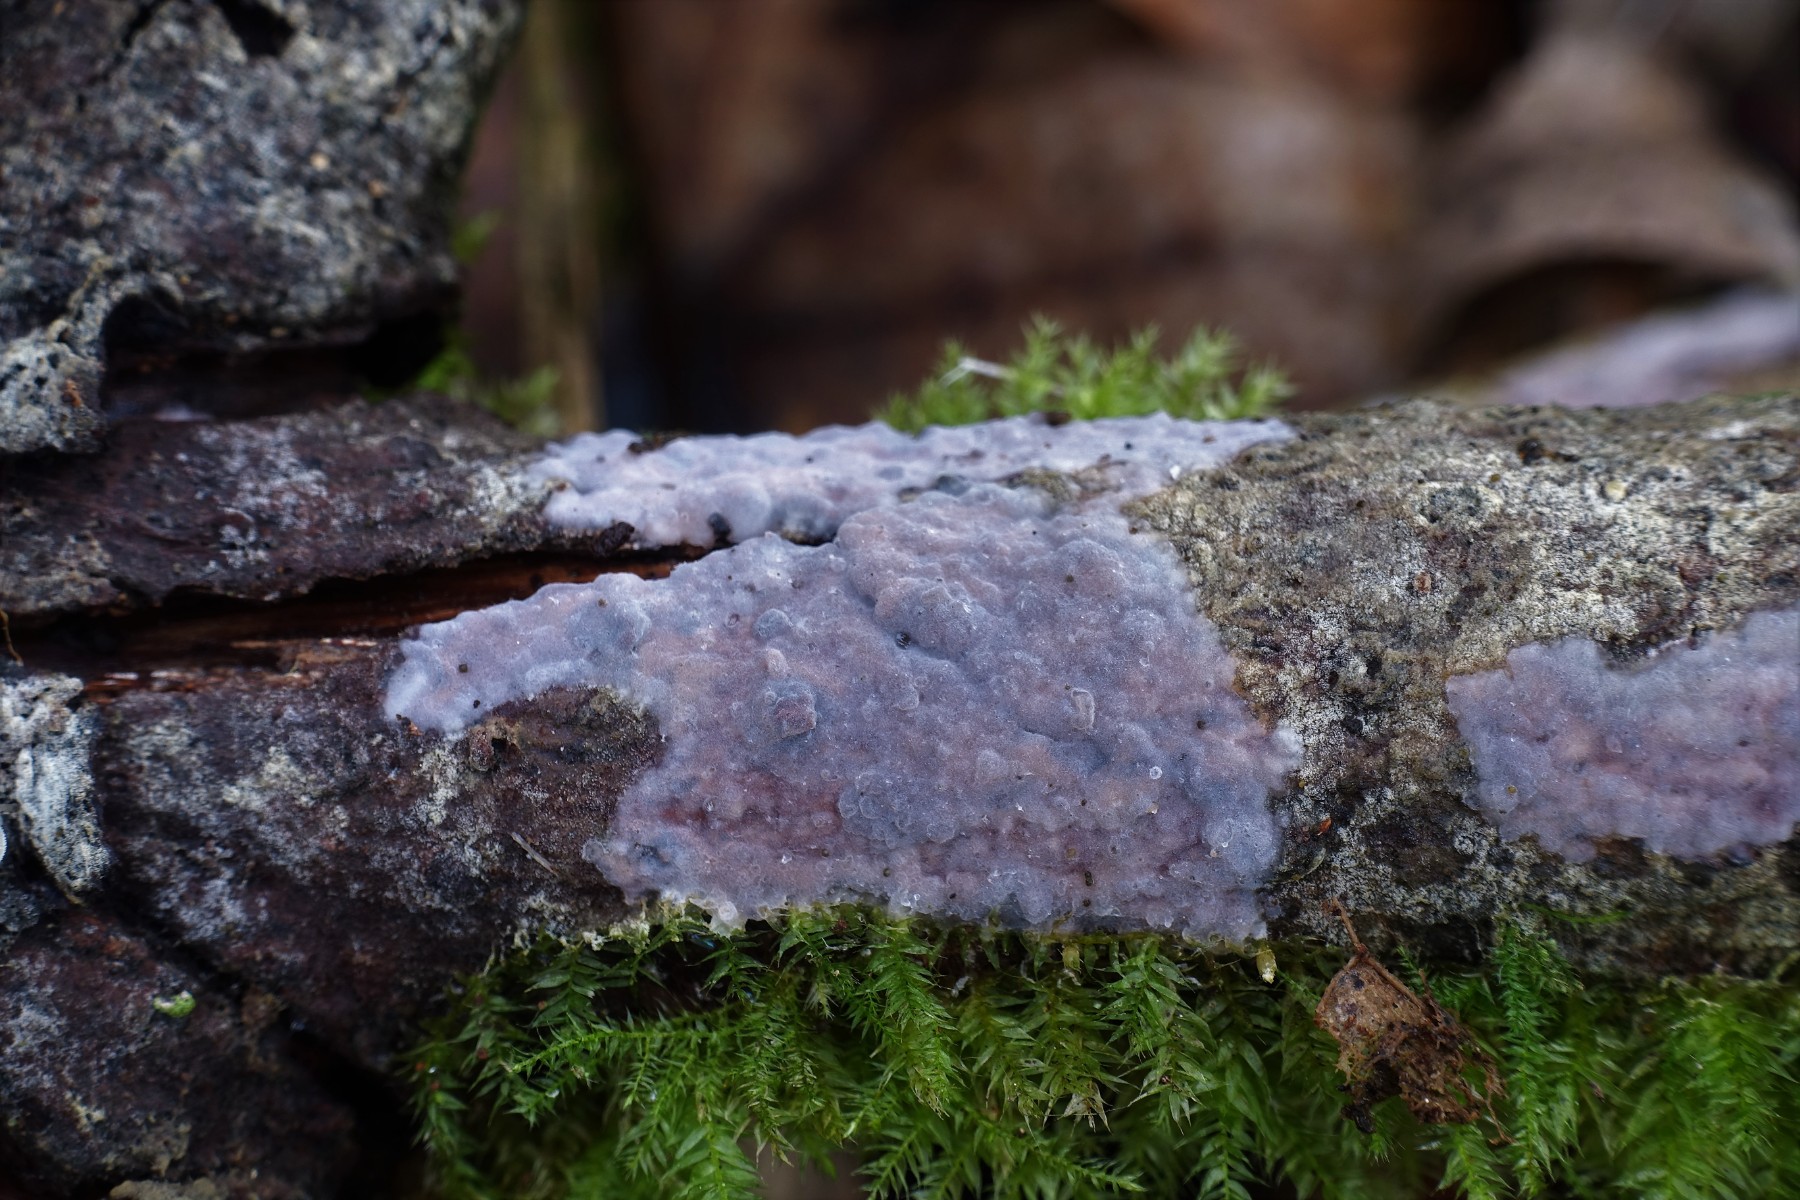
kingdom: Fungi
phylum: Basidiomycota
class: Agaricomycetes
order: Sebacinales
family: Sebacinaceae
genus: Sebacina
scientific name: Sebacina grisea
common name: blågrå bævrehinde
